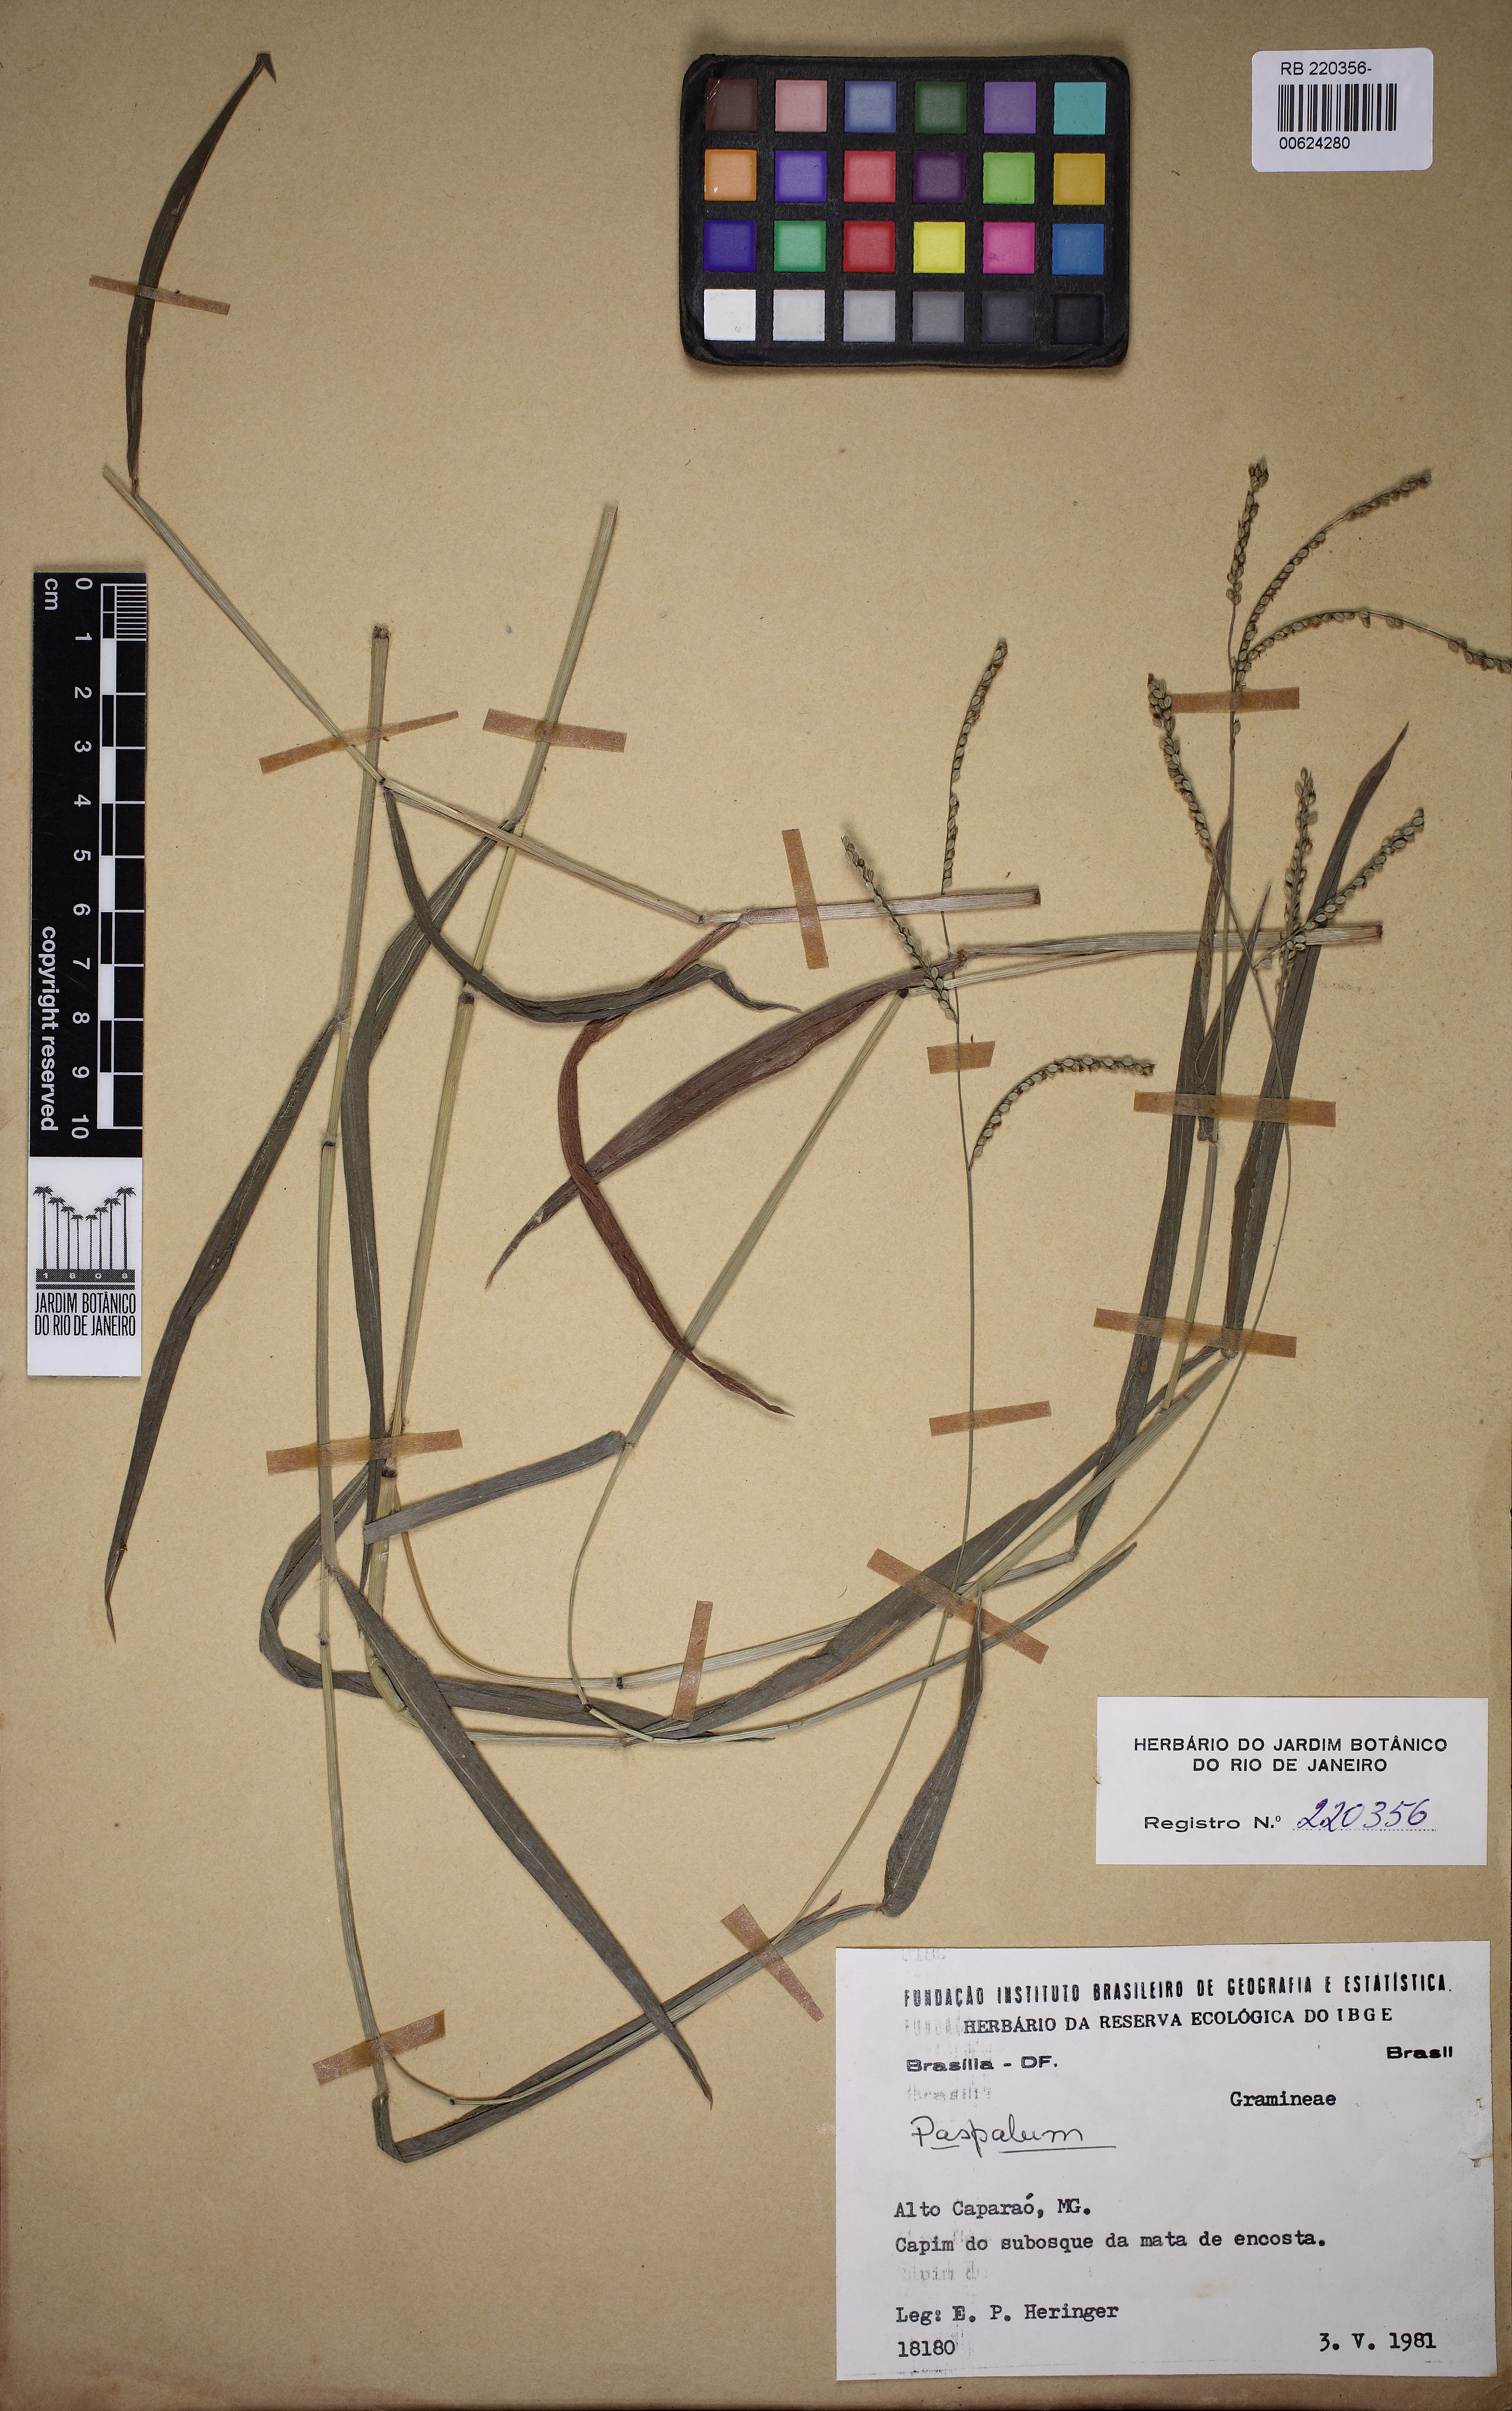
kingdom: Plantae
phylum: Tracheophyta
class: Liliopsida
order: Poales
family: Poaceae
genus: Paspalum
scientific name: Paspalum
